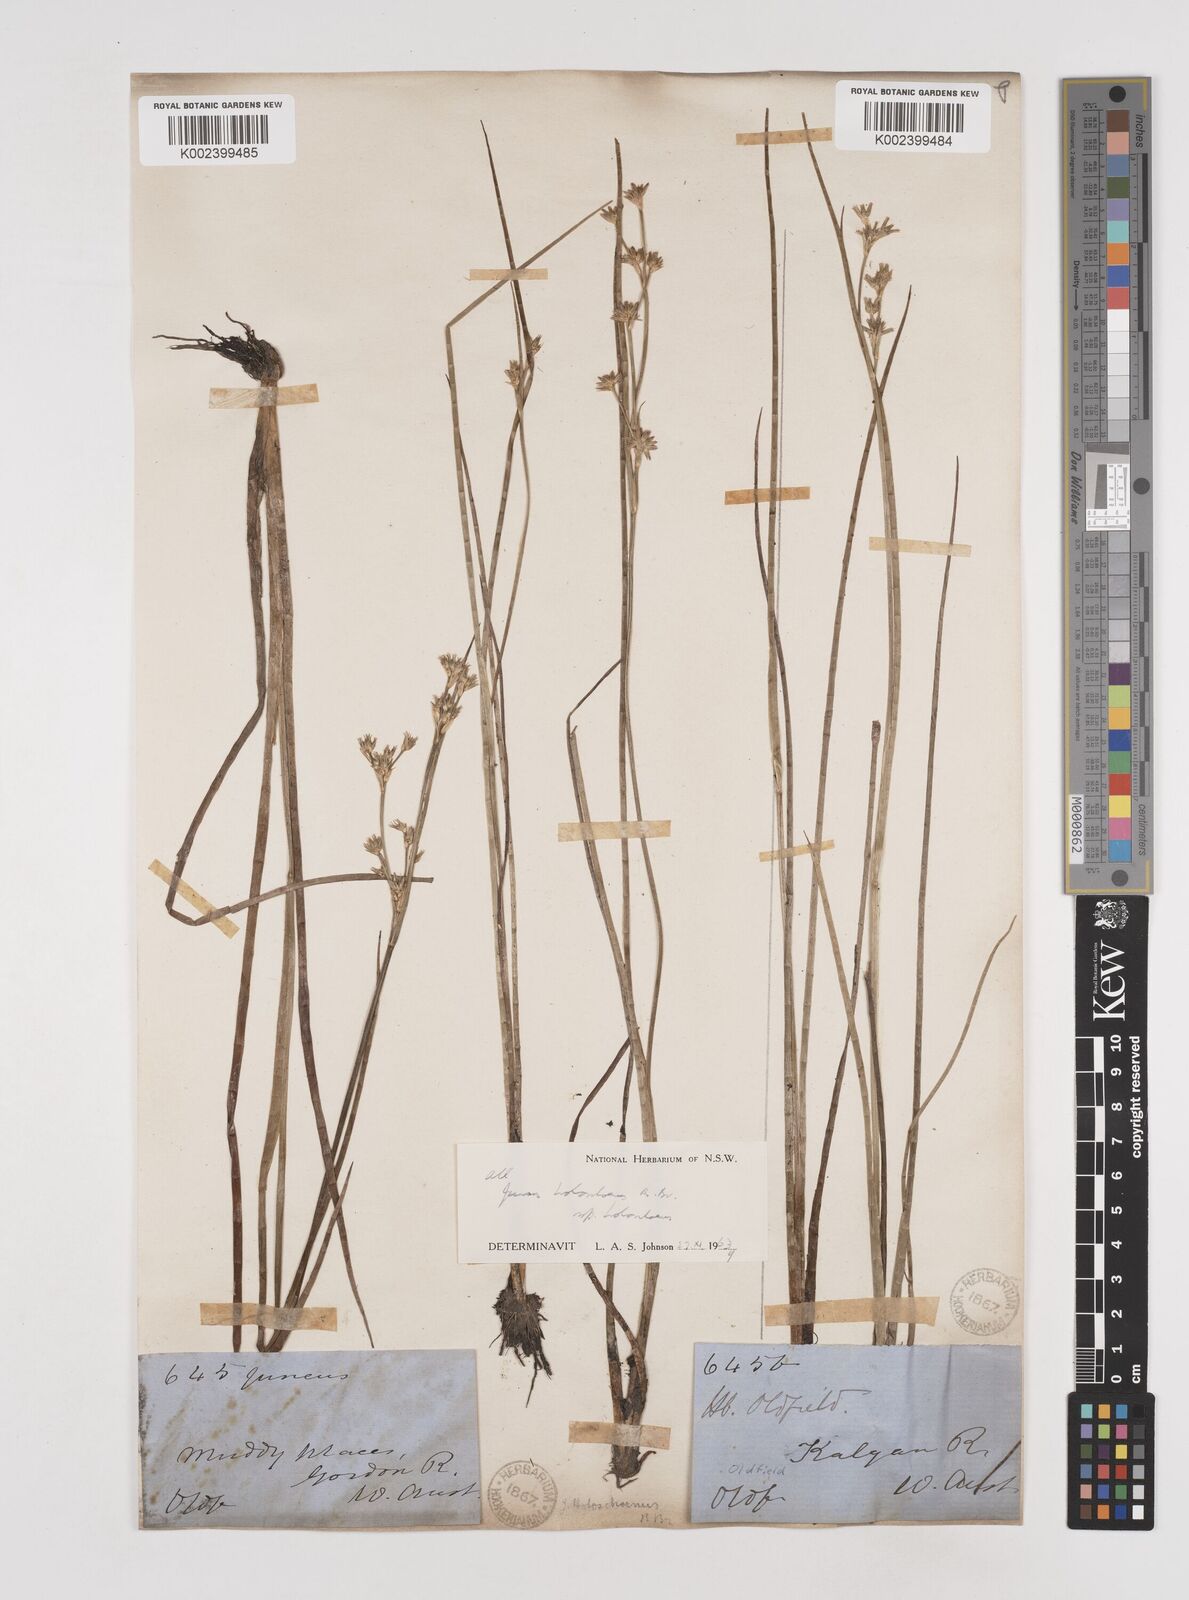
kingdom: Plantae
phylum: Tracheophyta
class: Liliopsida
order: Poales
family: Juncaceae
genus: Juncus
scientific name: Juncus holoschoenus
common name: Joint-leaf rush
